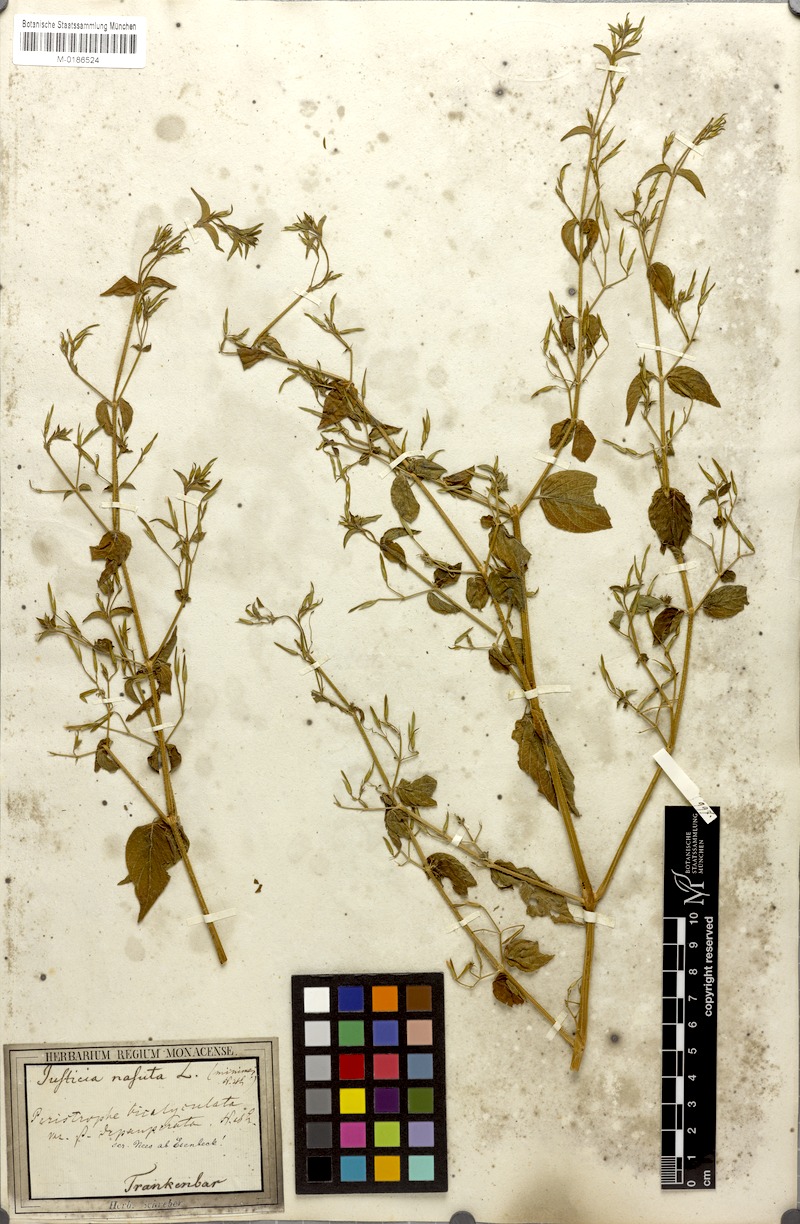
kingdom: Plantae
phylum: Tracheophyta
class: Magnoliopsida
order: Lamiales
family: Acanthaceae
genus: Dicliptera
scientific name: Dicliptera paniculata
